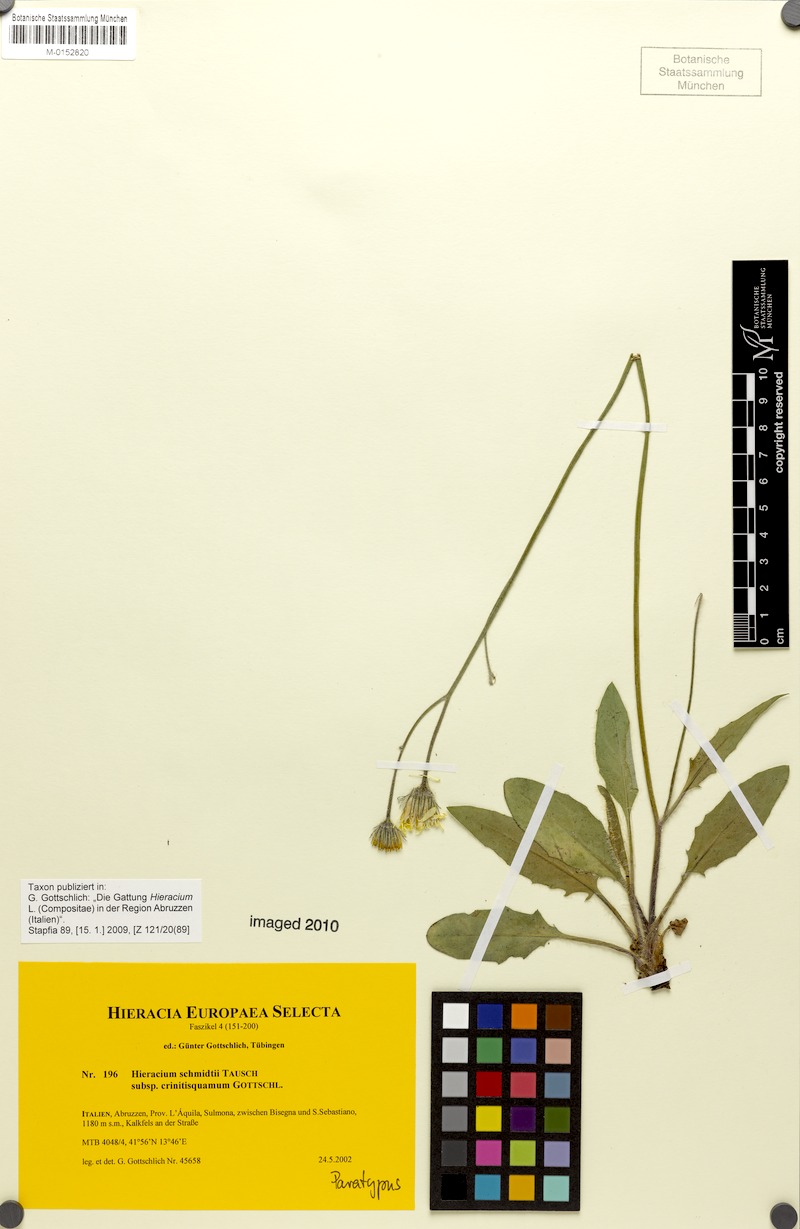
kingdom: Plantae
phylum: Tracheophyta
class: Magnoliopsida
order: Asterales
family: Asteraceae
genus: Hieracium
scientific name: Hieracium schmidtii
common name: Schmidt's hawkweed
